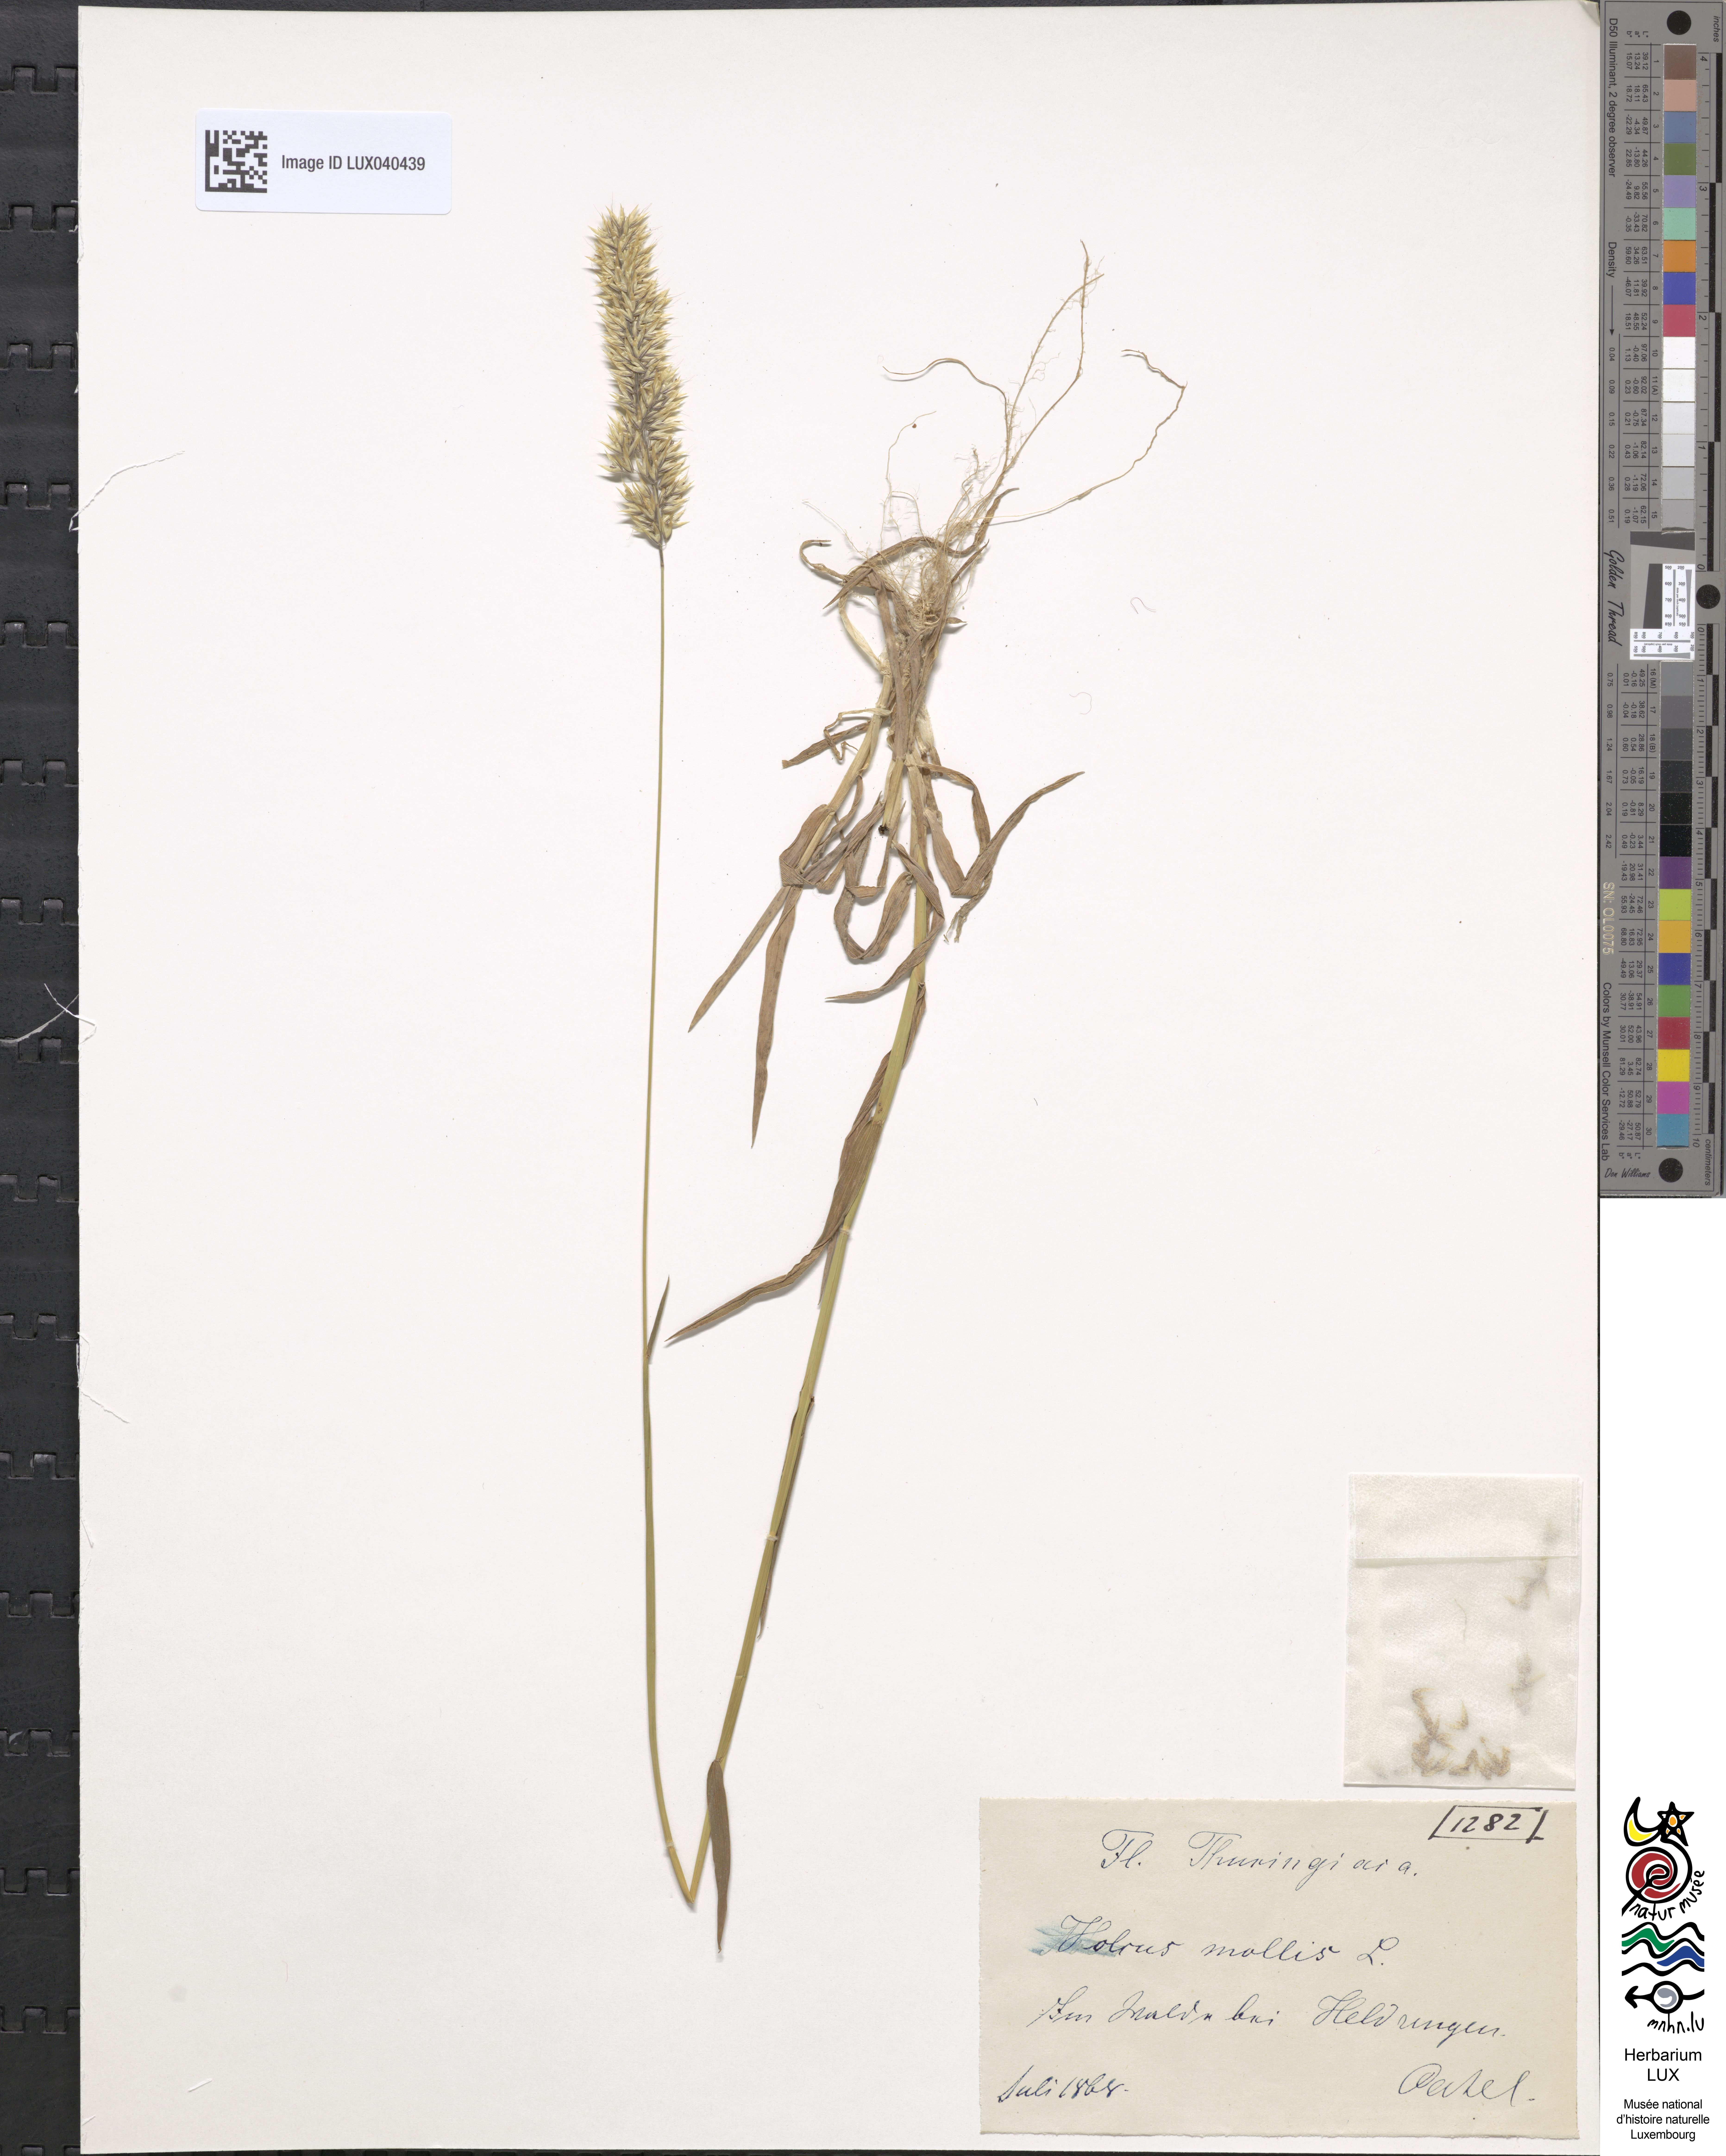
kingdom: Plantae
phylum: Tracheophyta
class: Liliopsida
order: Poales
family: Poaceae
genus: Holcus
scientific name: Holcus mollis
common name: Creeping velvetgrass
